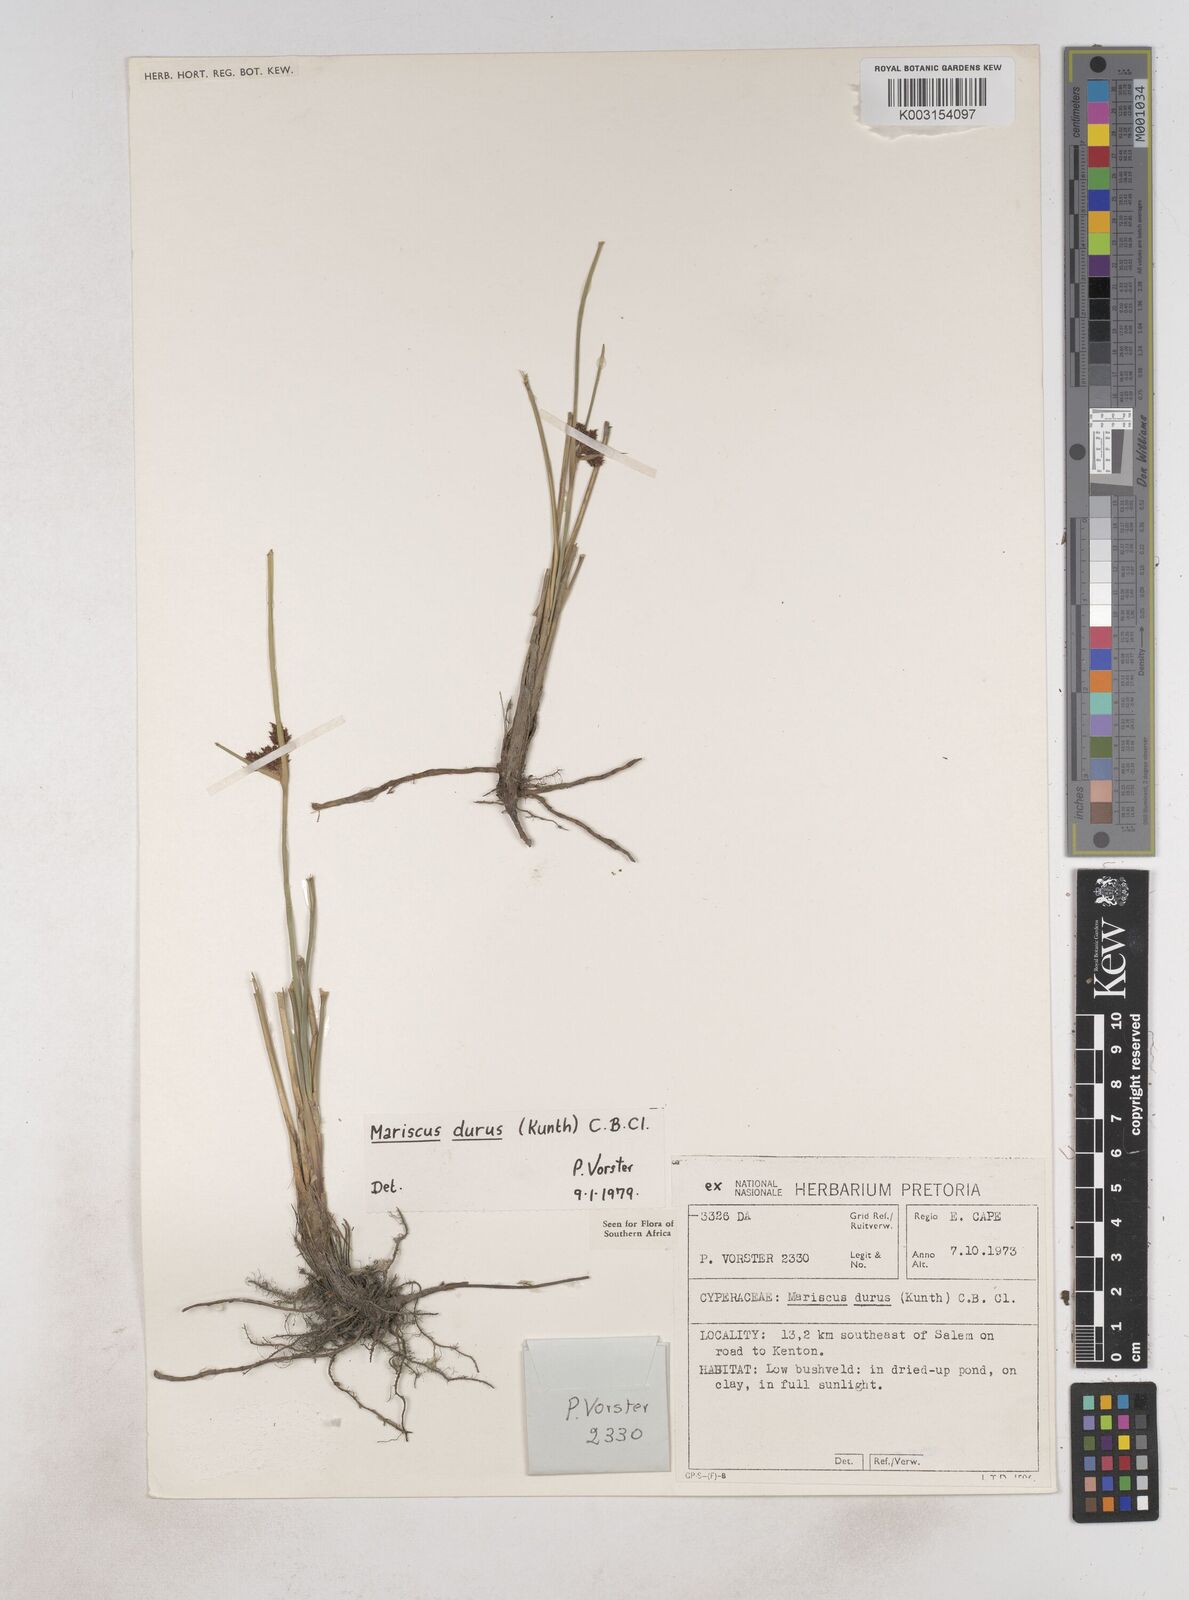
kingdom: Plantae
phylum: Tracheophyta
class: Liliopsida
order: Poales
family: Cyperaceae
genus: Cyperus
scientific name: Cyperus durus
